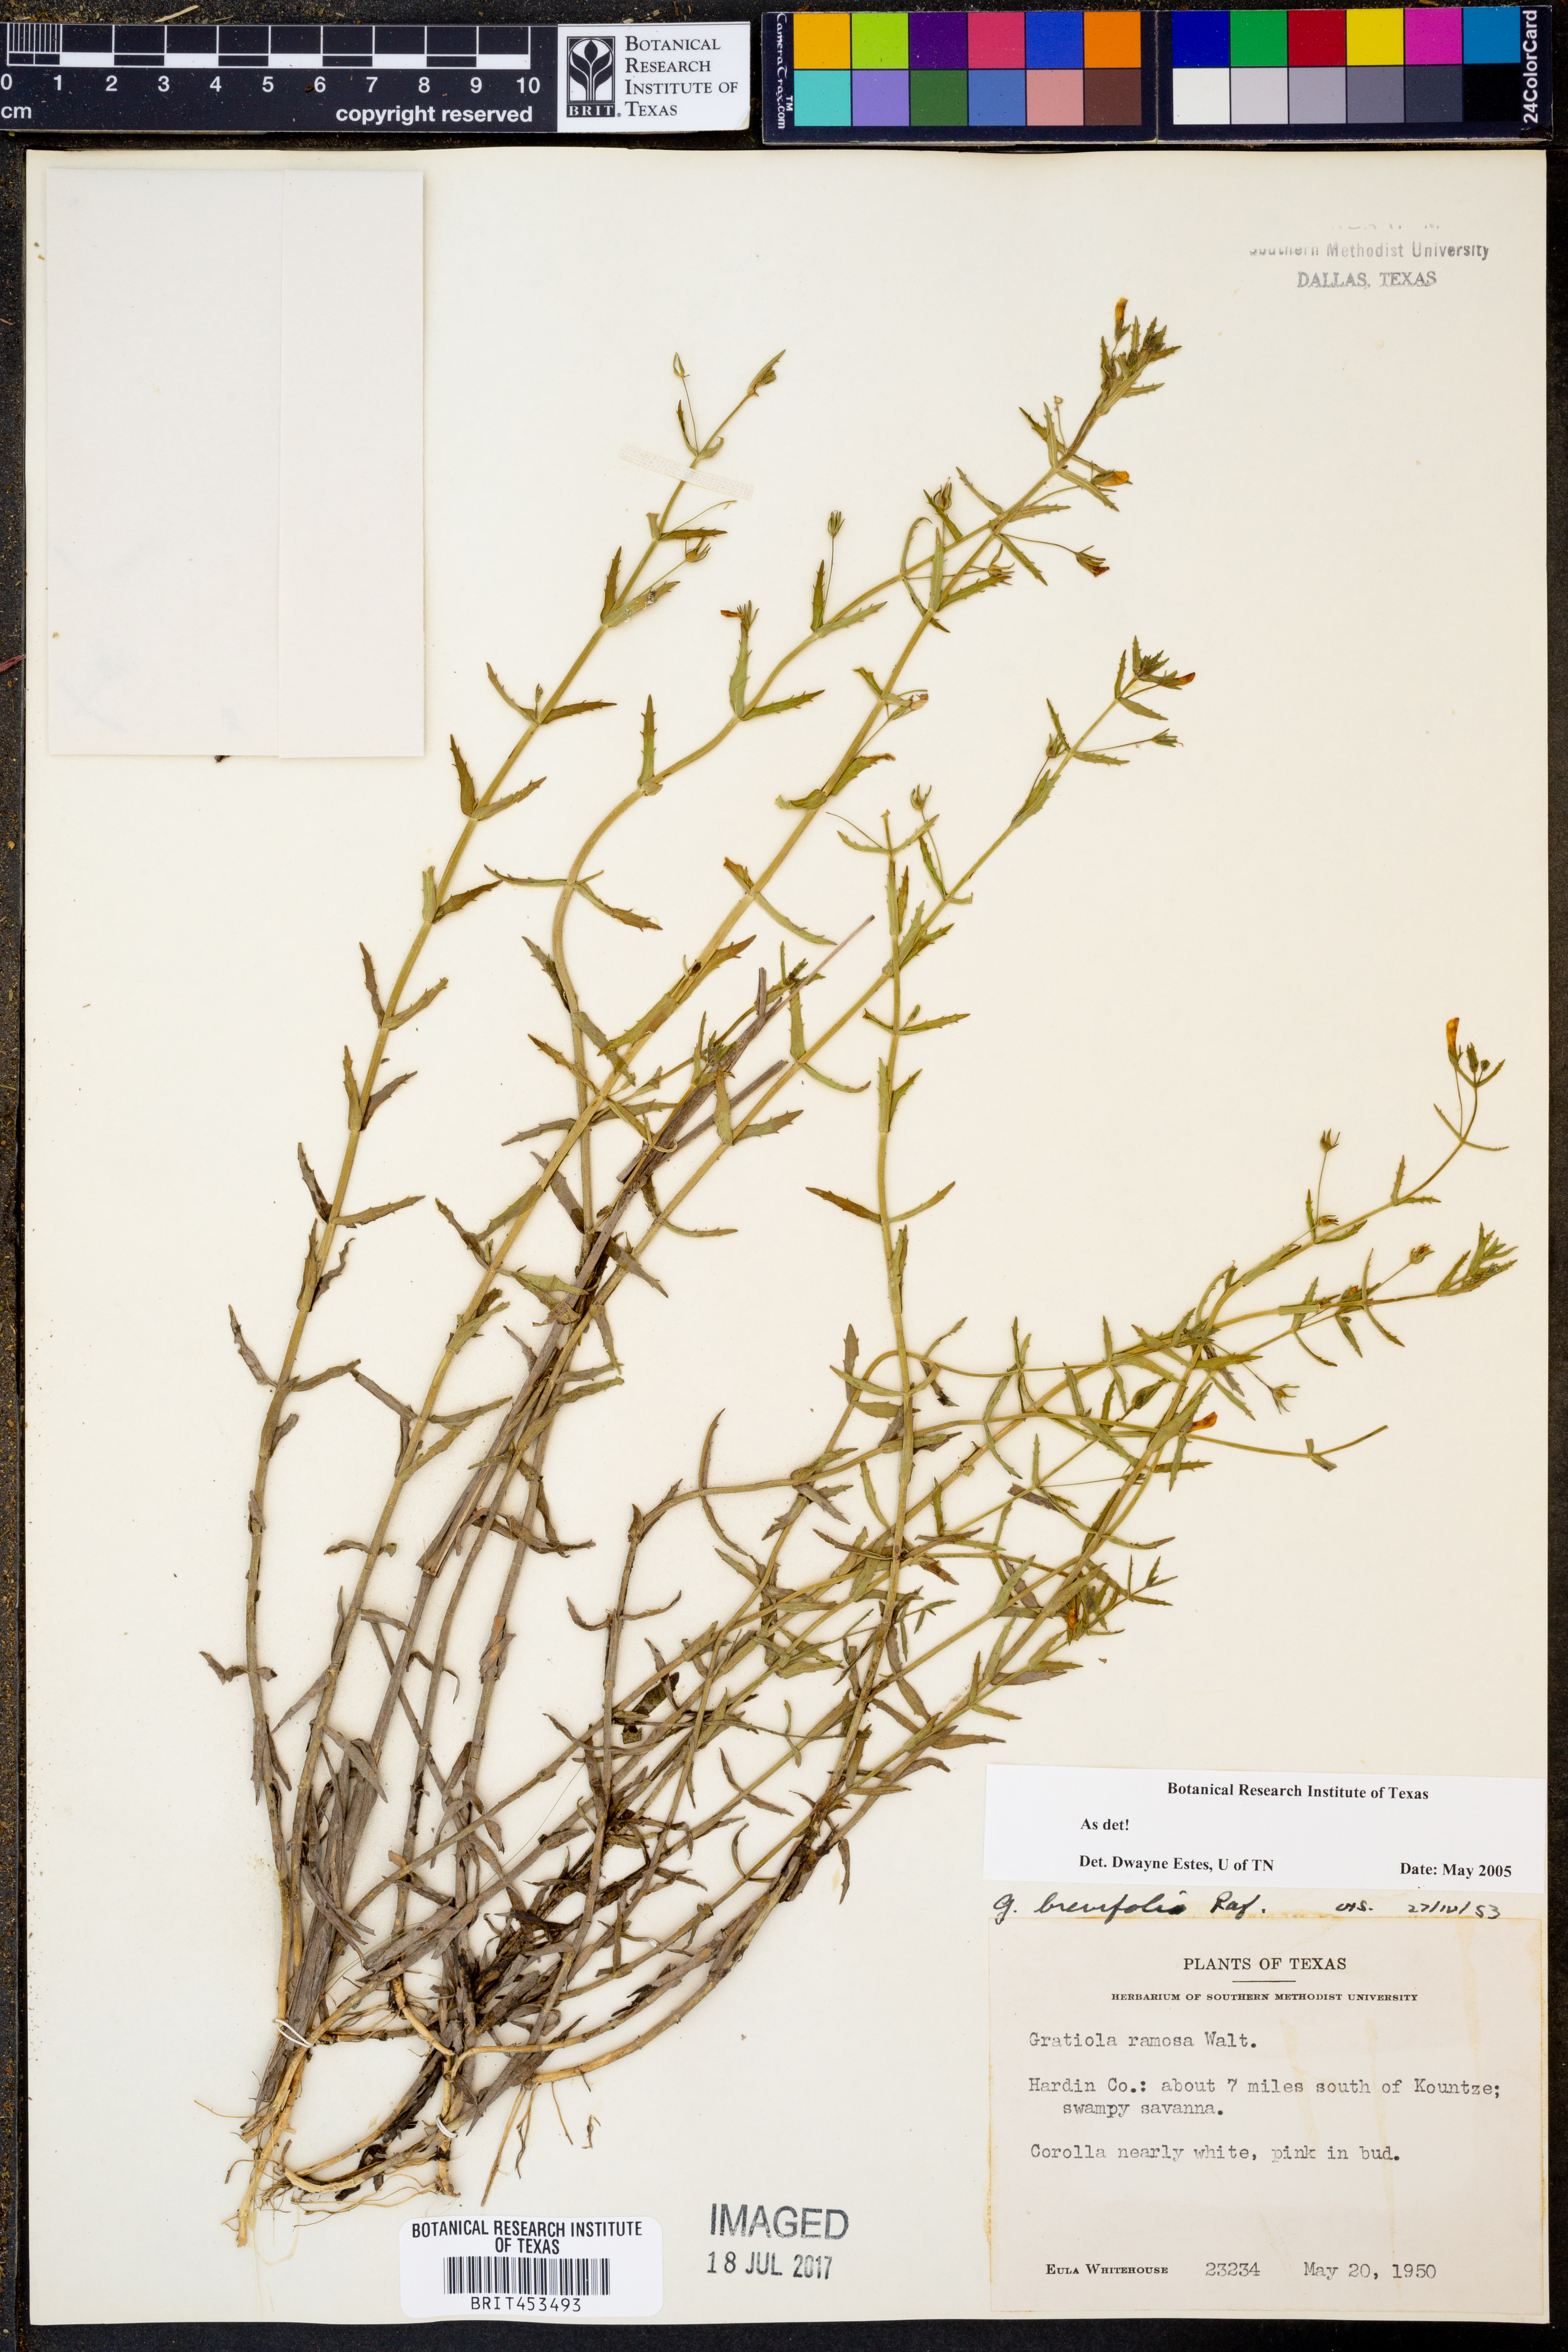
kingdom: Plantae
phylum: Tracheophyta
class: Magnoliopsida
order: Lamiales
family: Plantaginaceae
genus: Gratiola
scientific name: Gratiola ramosa
